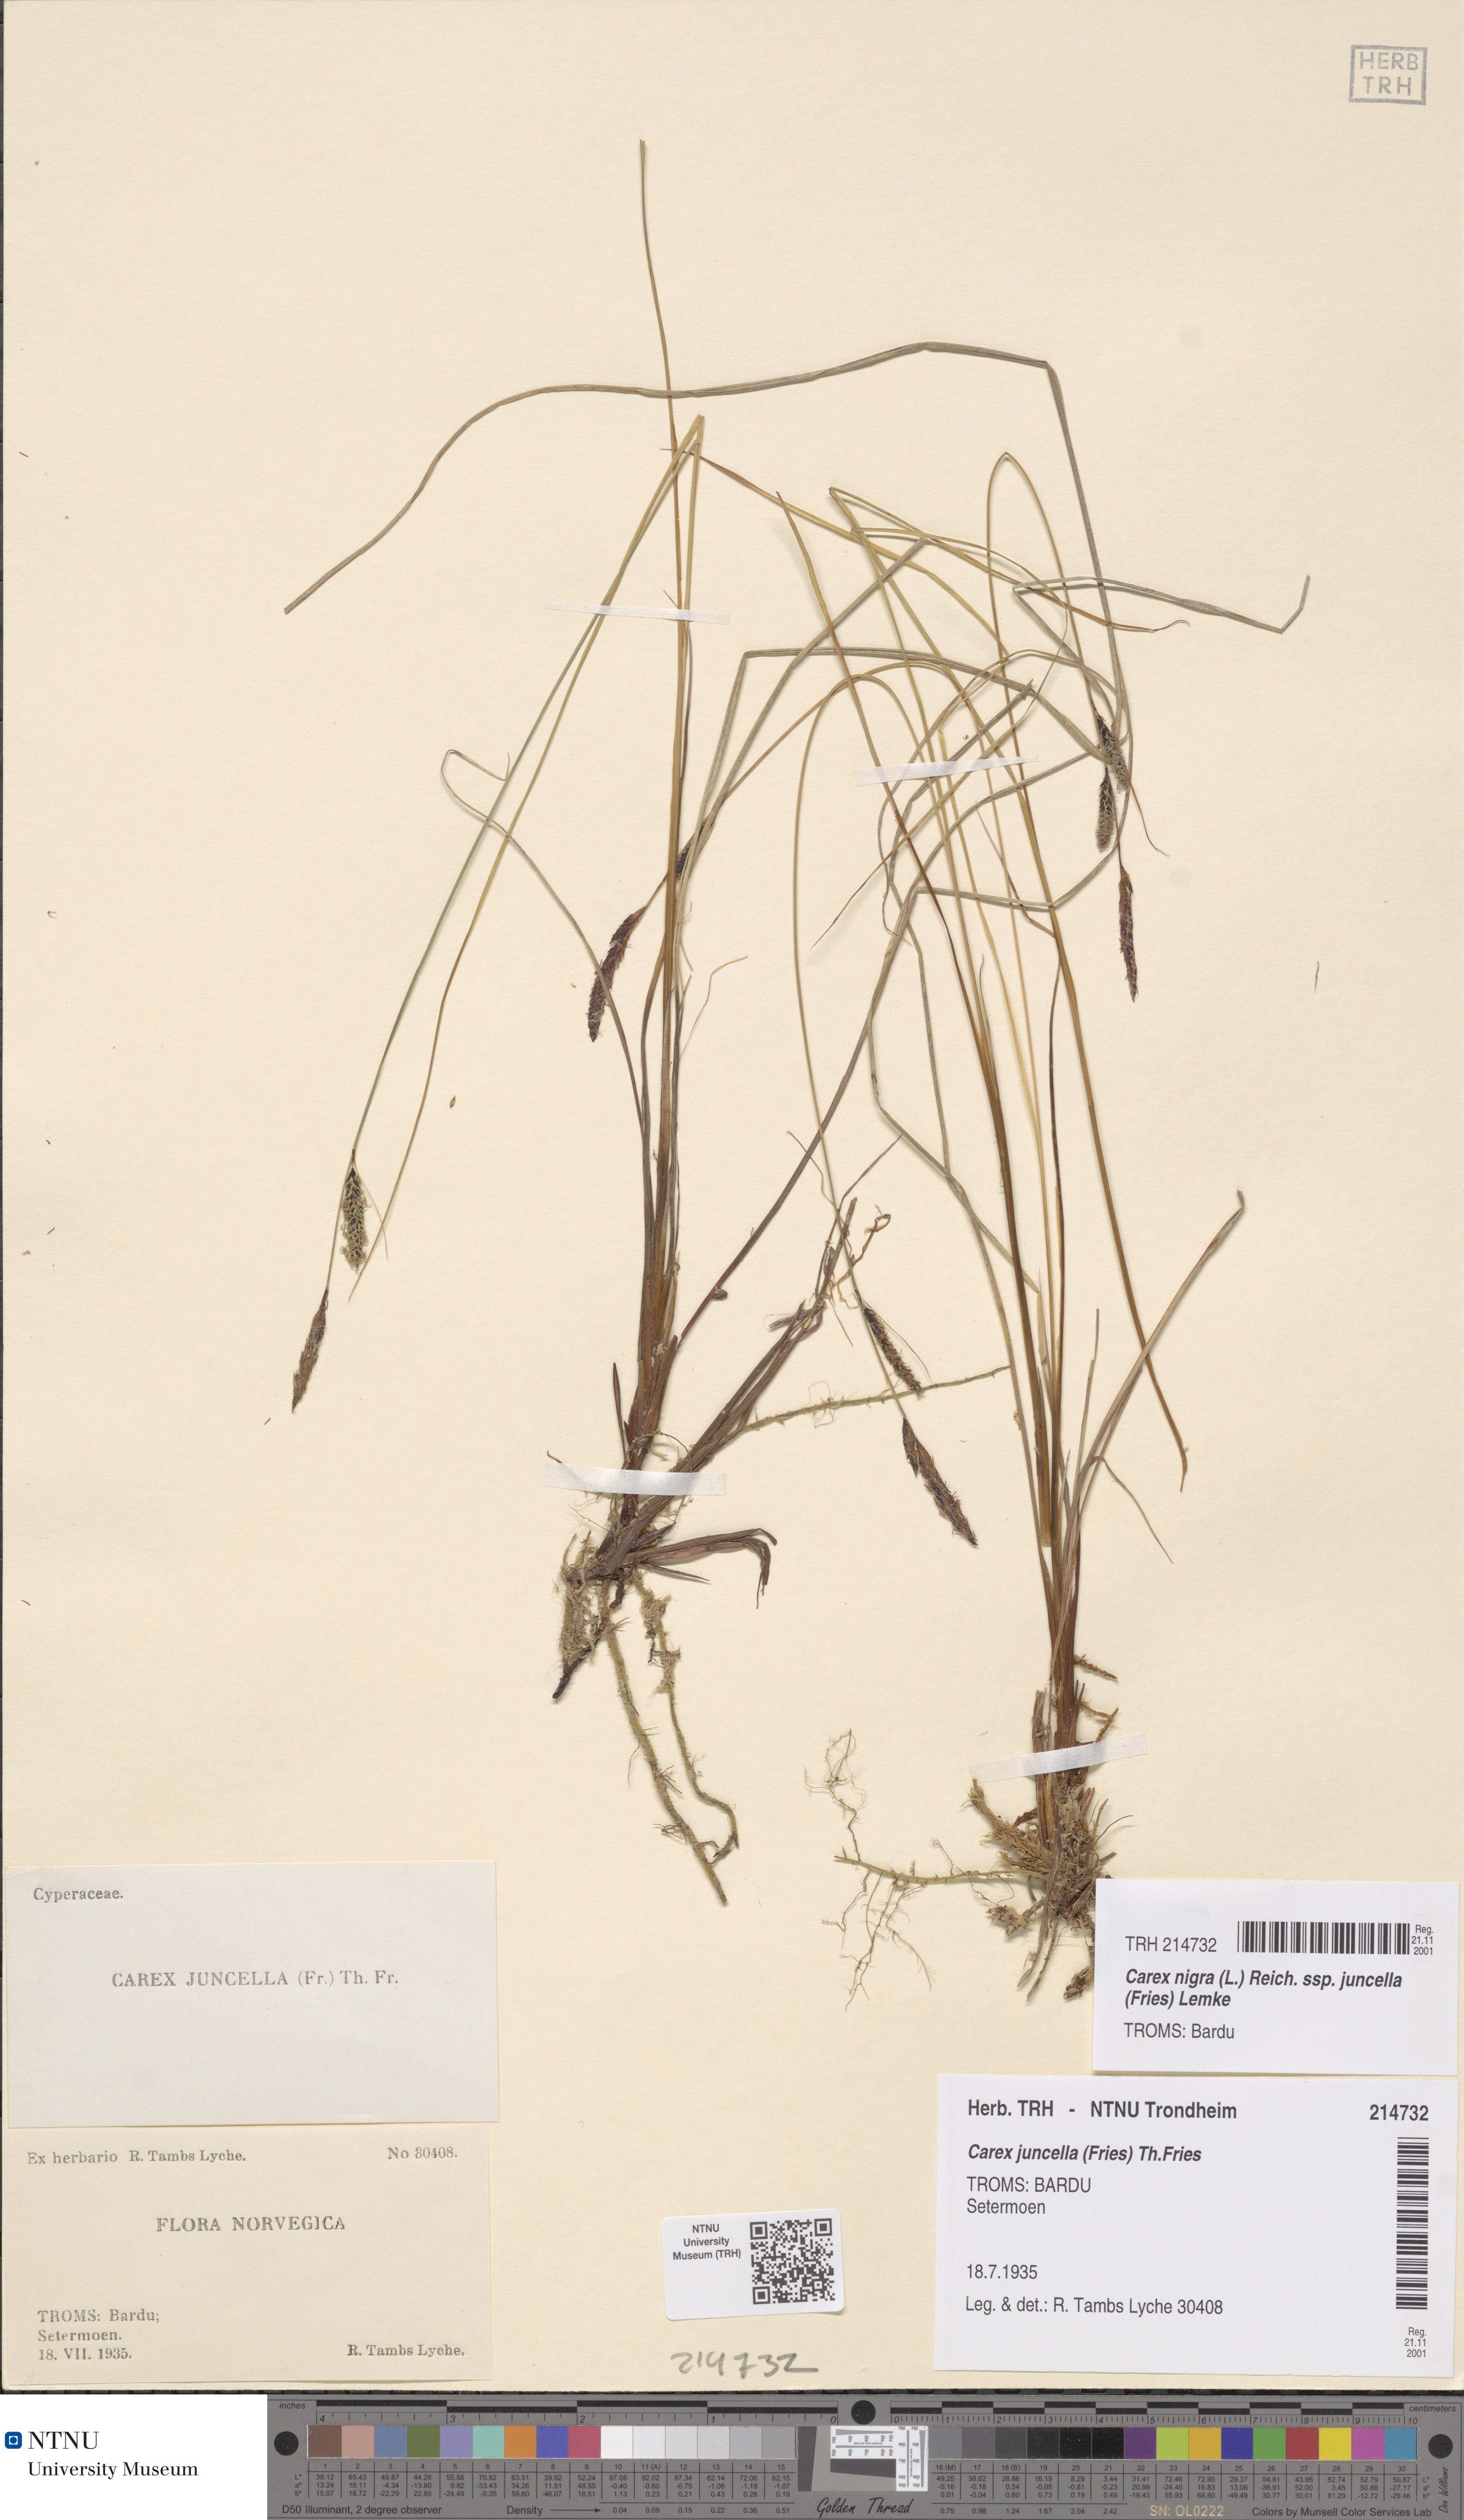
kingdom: Plantae
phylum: Tracheophyta
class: Liliopsida
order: Poales
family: Cyperaceae
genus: Carex
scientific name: Carex nigra
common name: Common sedge
